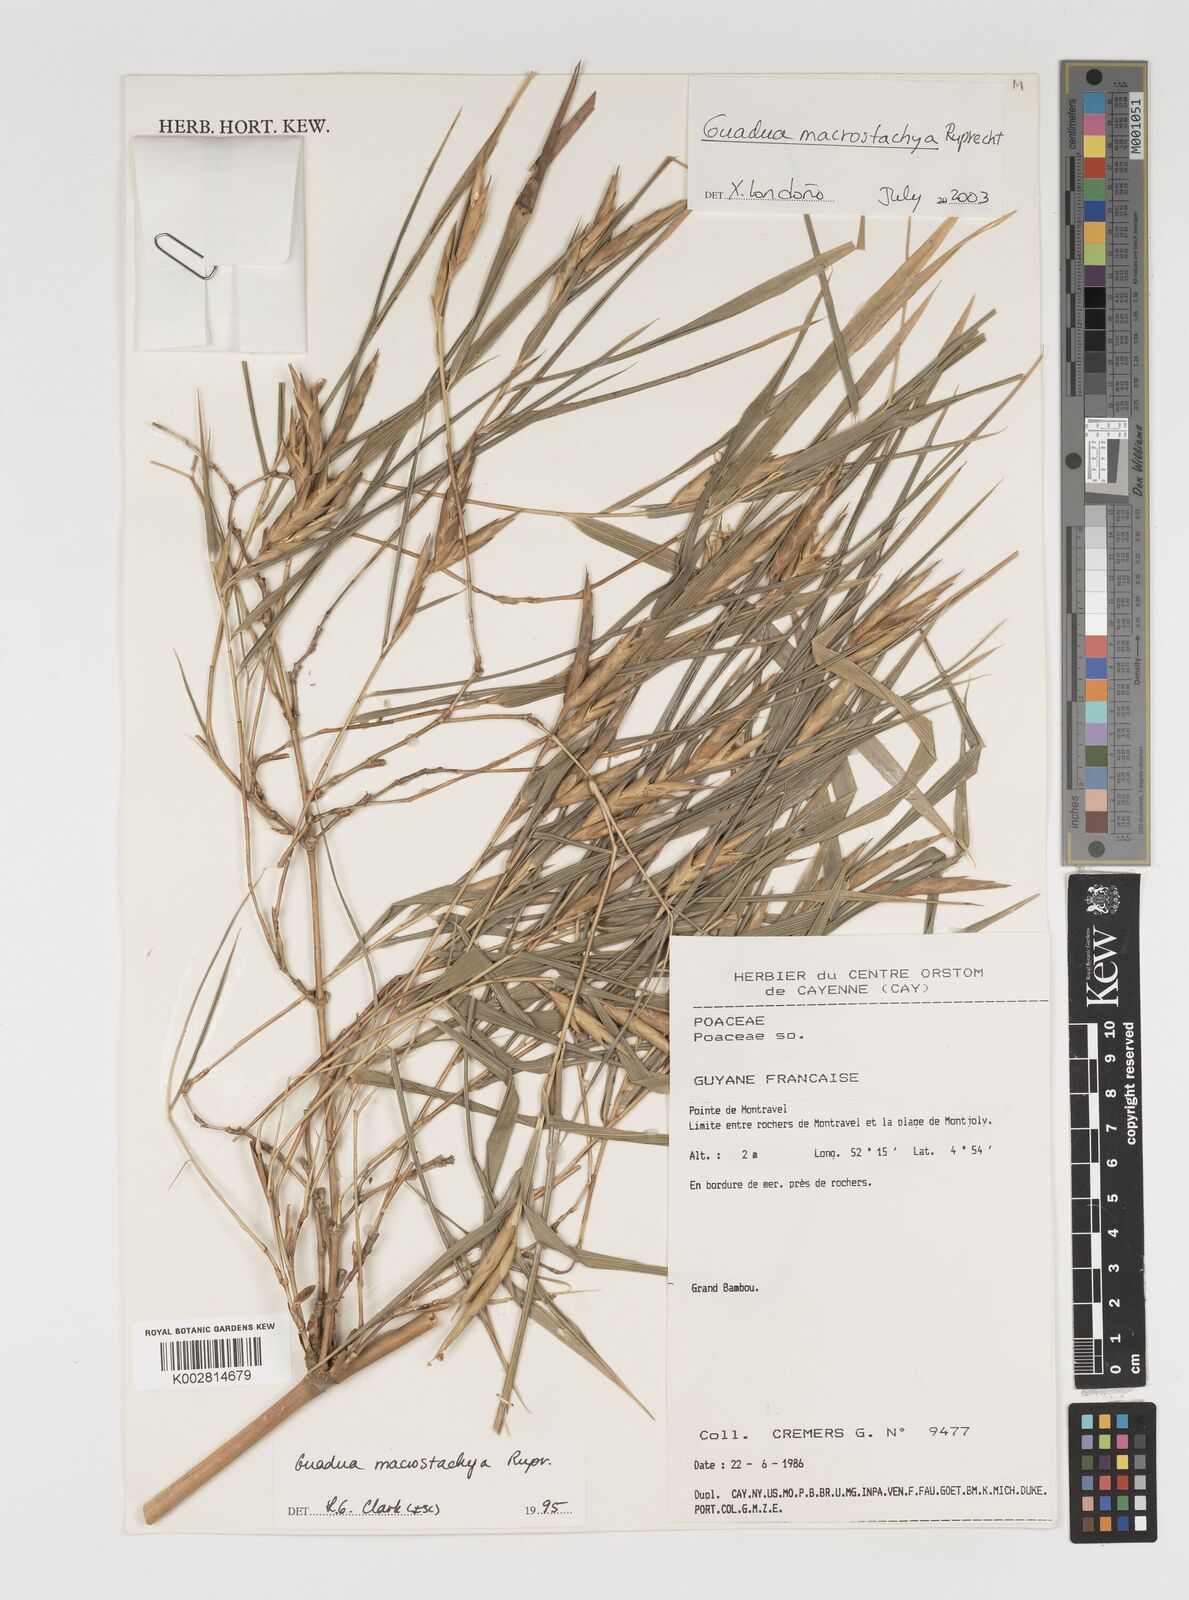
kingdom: Plantae
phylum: Tracheophyta
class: Liliopsida
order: Poales
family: Poaceae
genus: Guadua
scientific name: Guadua macrostachya
